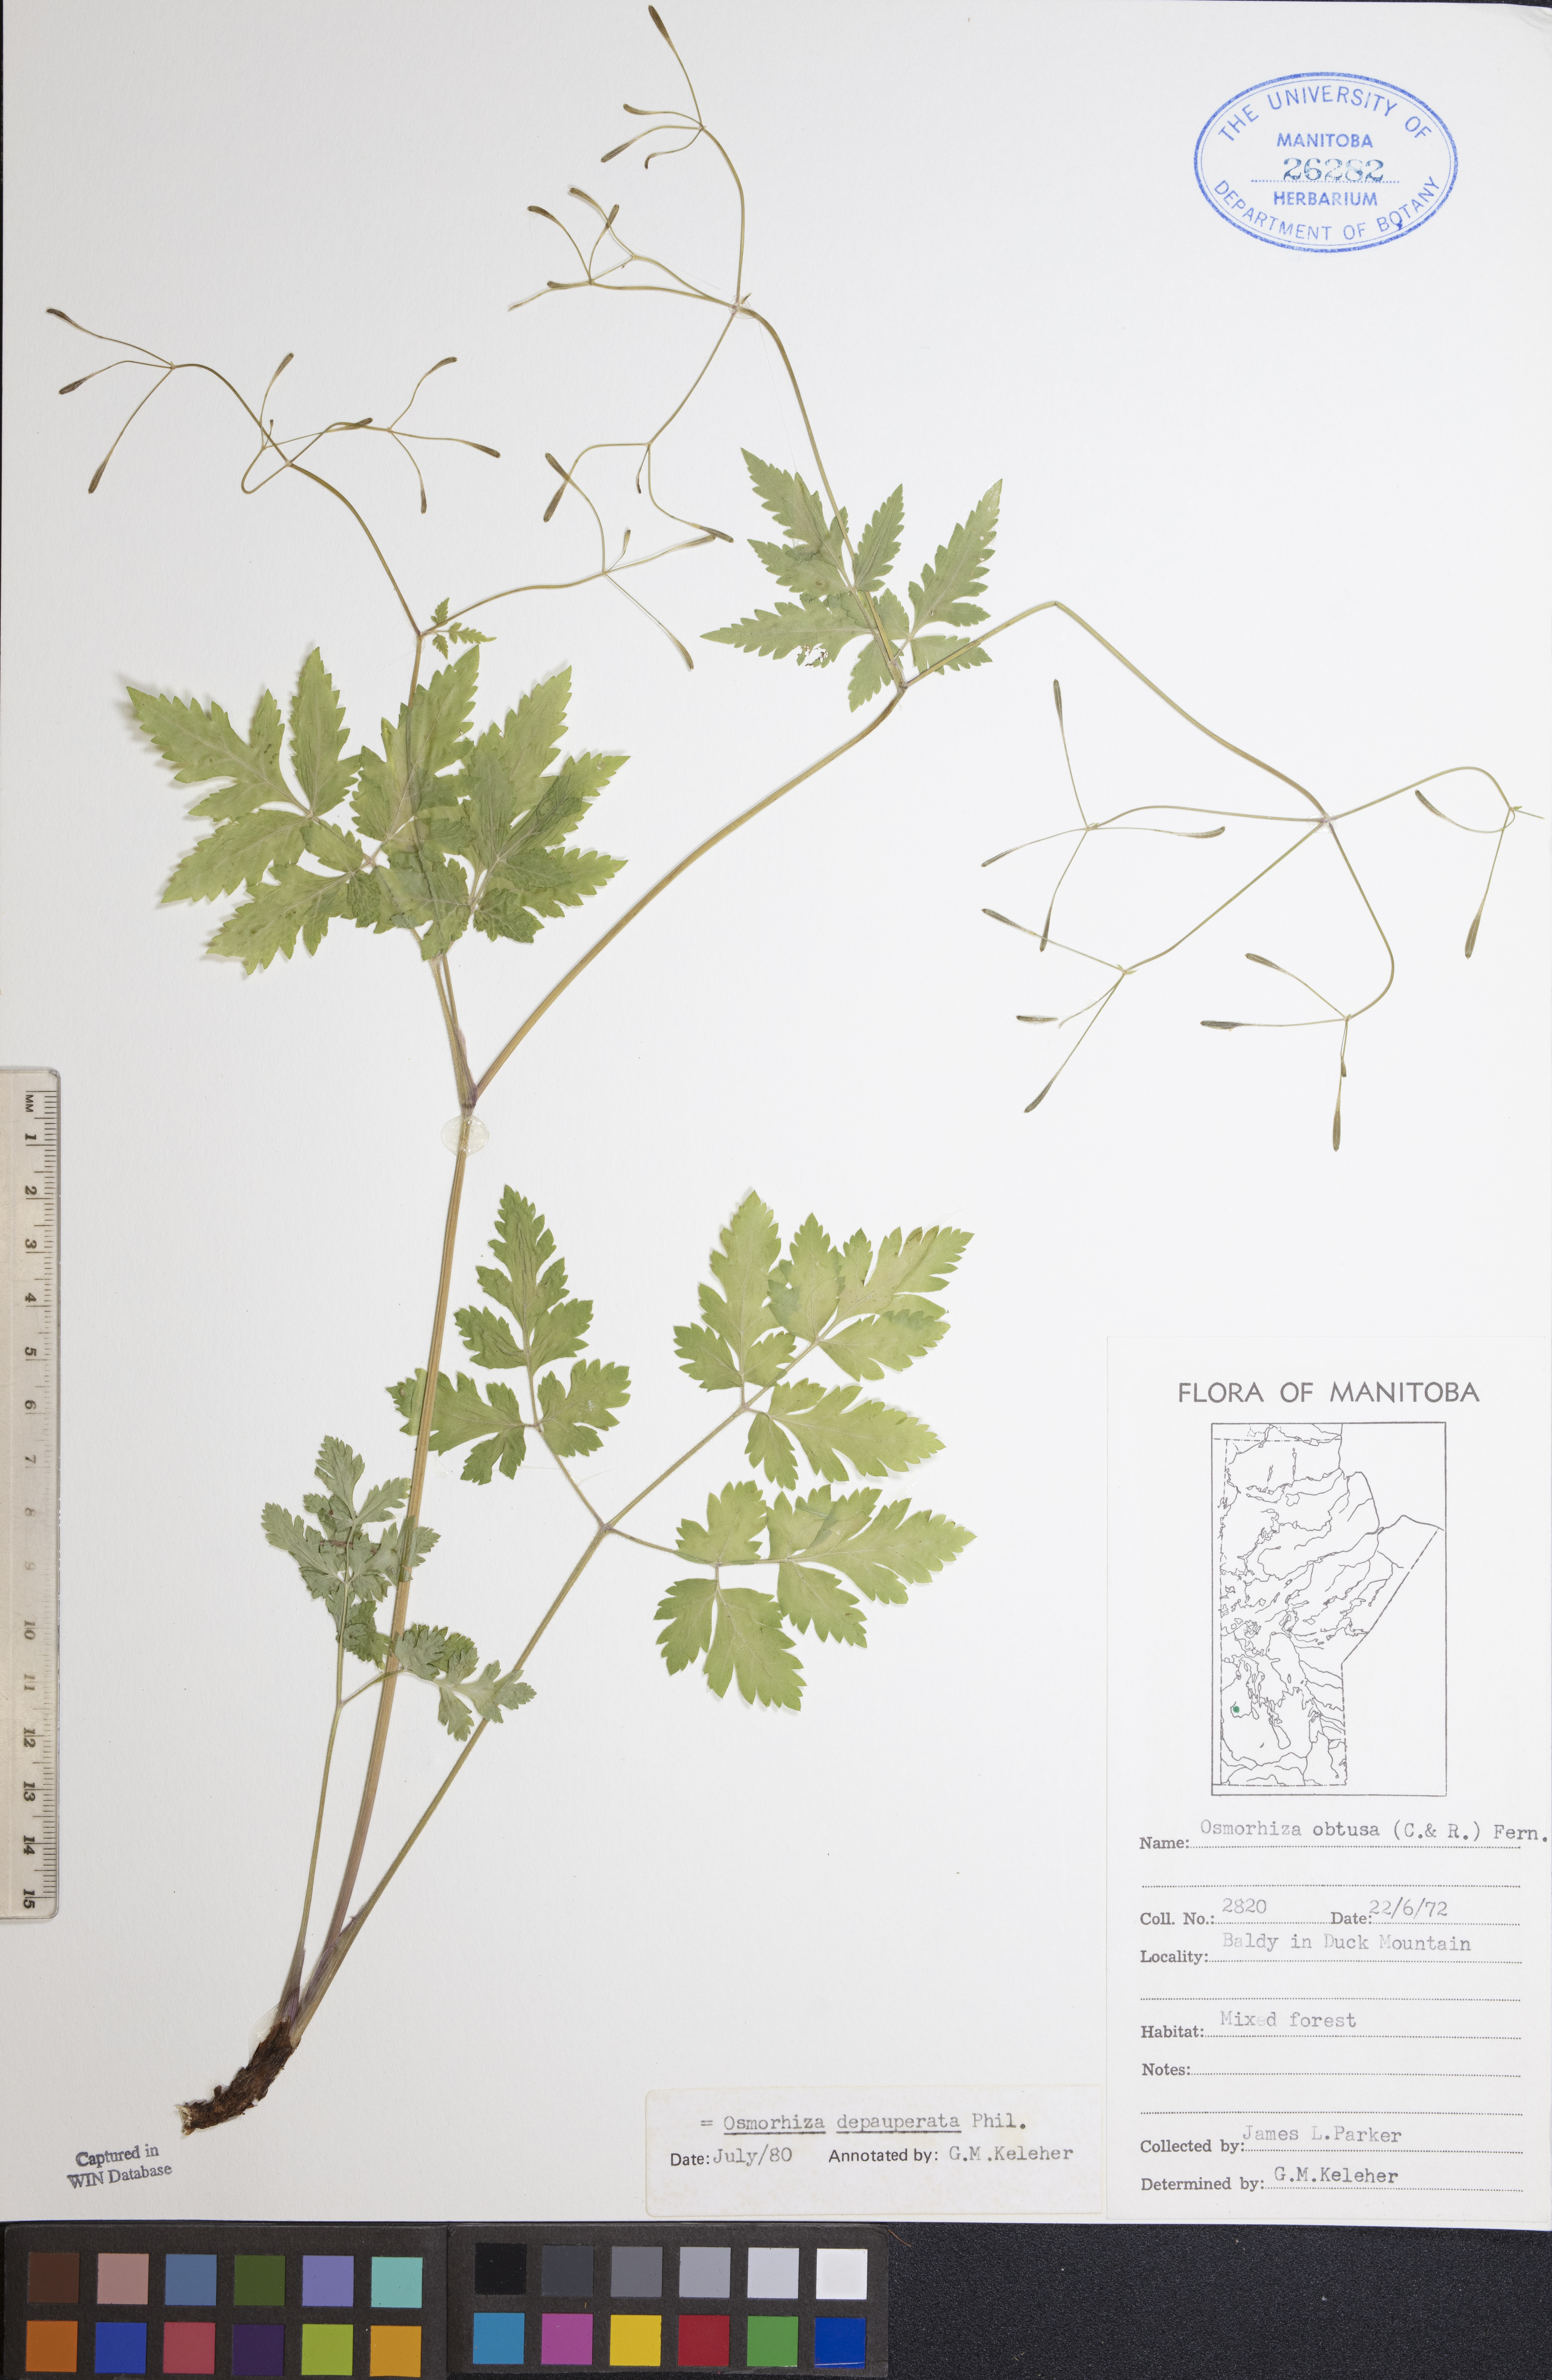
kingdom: Plantae
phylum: Tracheophyta
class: Magnoliopsida
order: Apiales
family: Apiaceae
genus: Osmorhiza
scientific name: Osmorhiza depauperata
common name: Blunt sweet cicely
